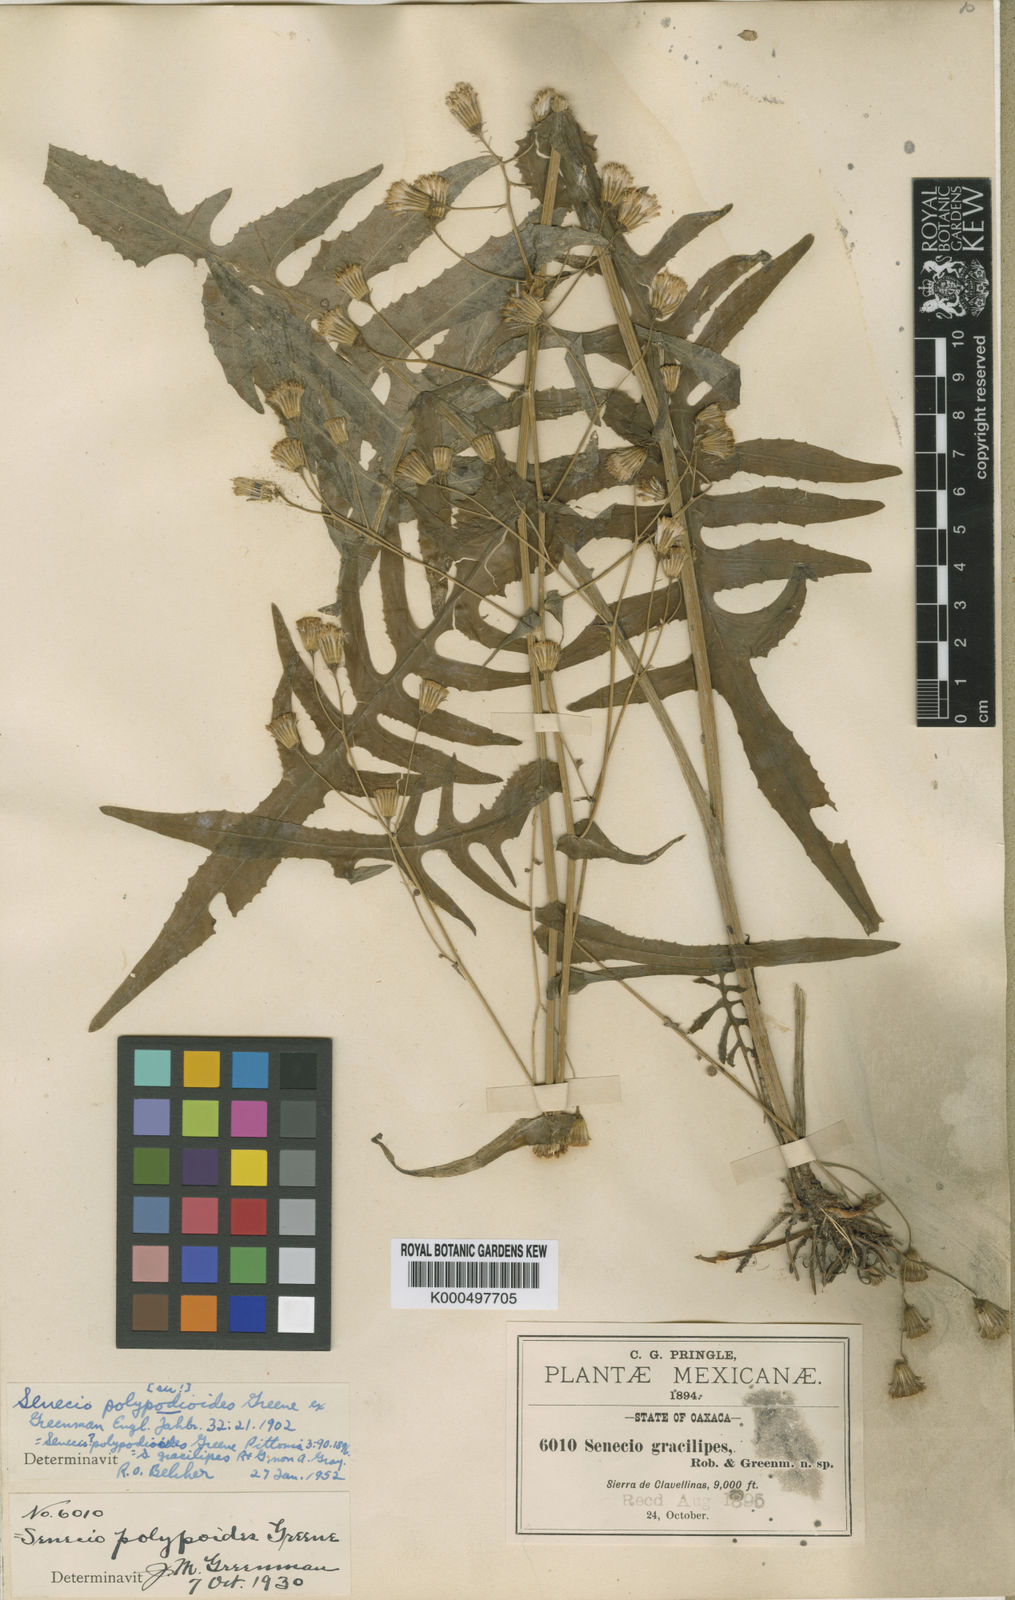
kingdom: Plantae
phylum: Tracheophyta
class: Magnoliopsida
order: Asterales
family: Asteraceae
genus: Senecio
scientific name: Senecio
